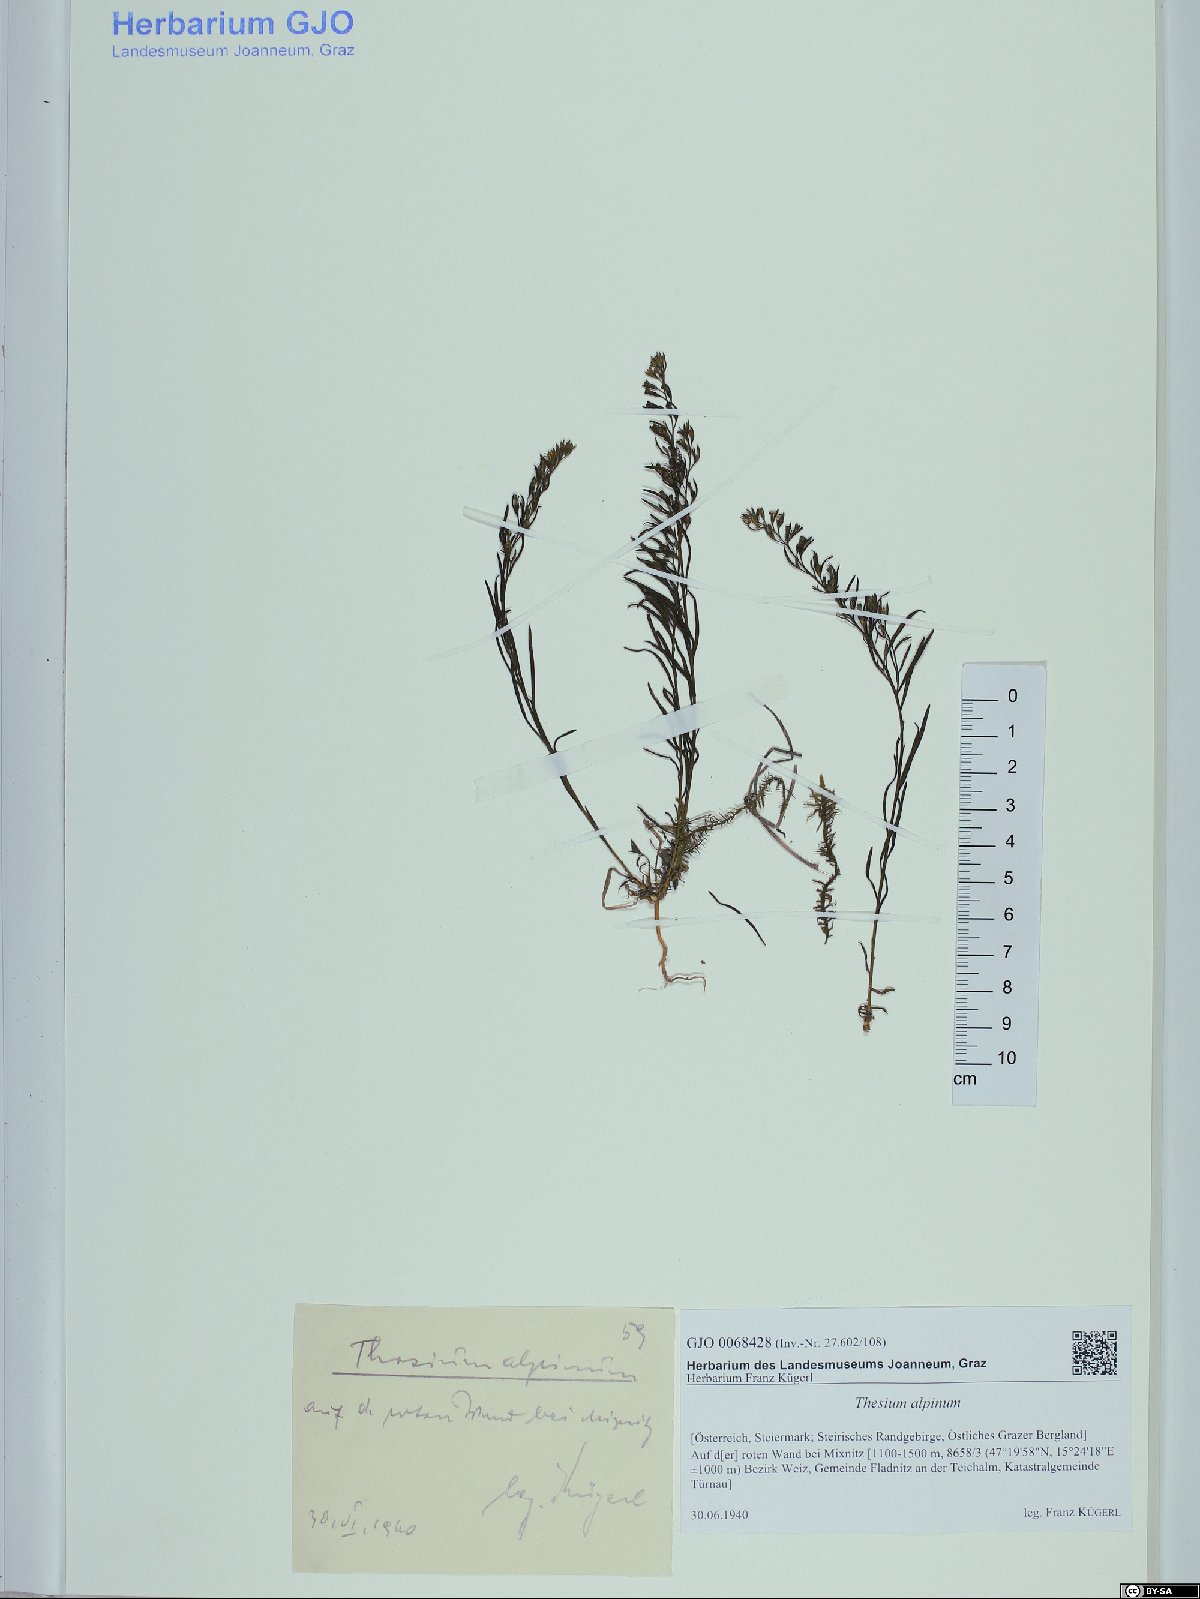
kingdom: Plantae
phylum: Tracheophyta
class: Magnoliopsida
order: Santalales
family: Thesiaceae
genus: Thesium
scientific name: Thesium alpinum
